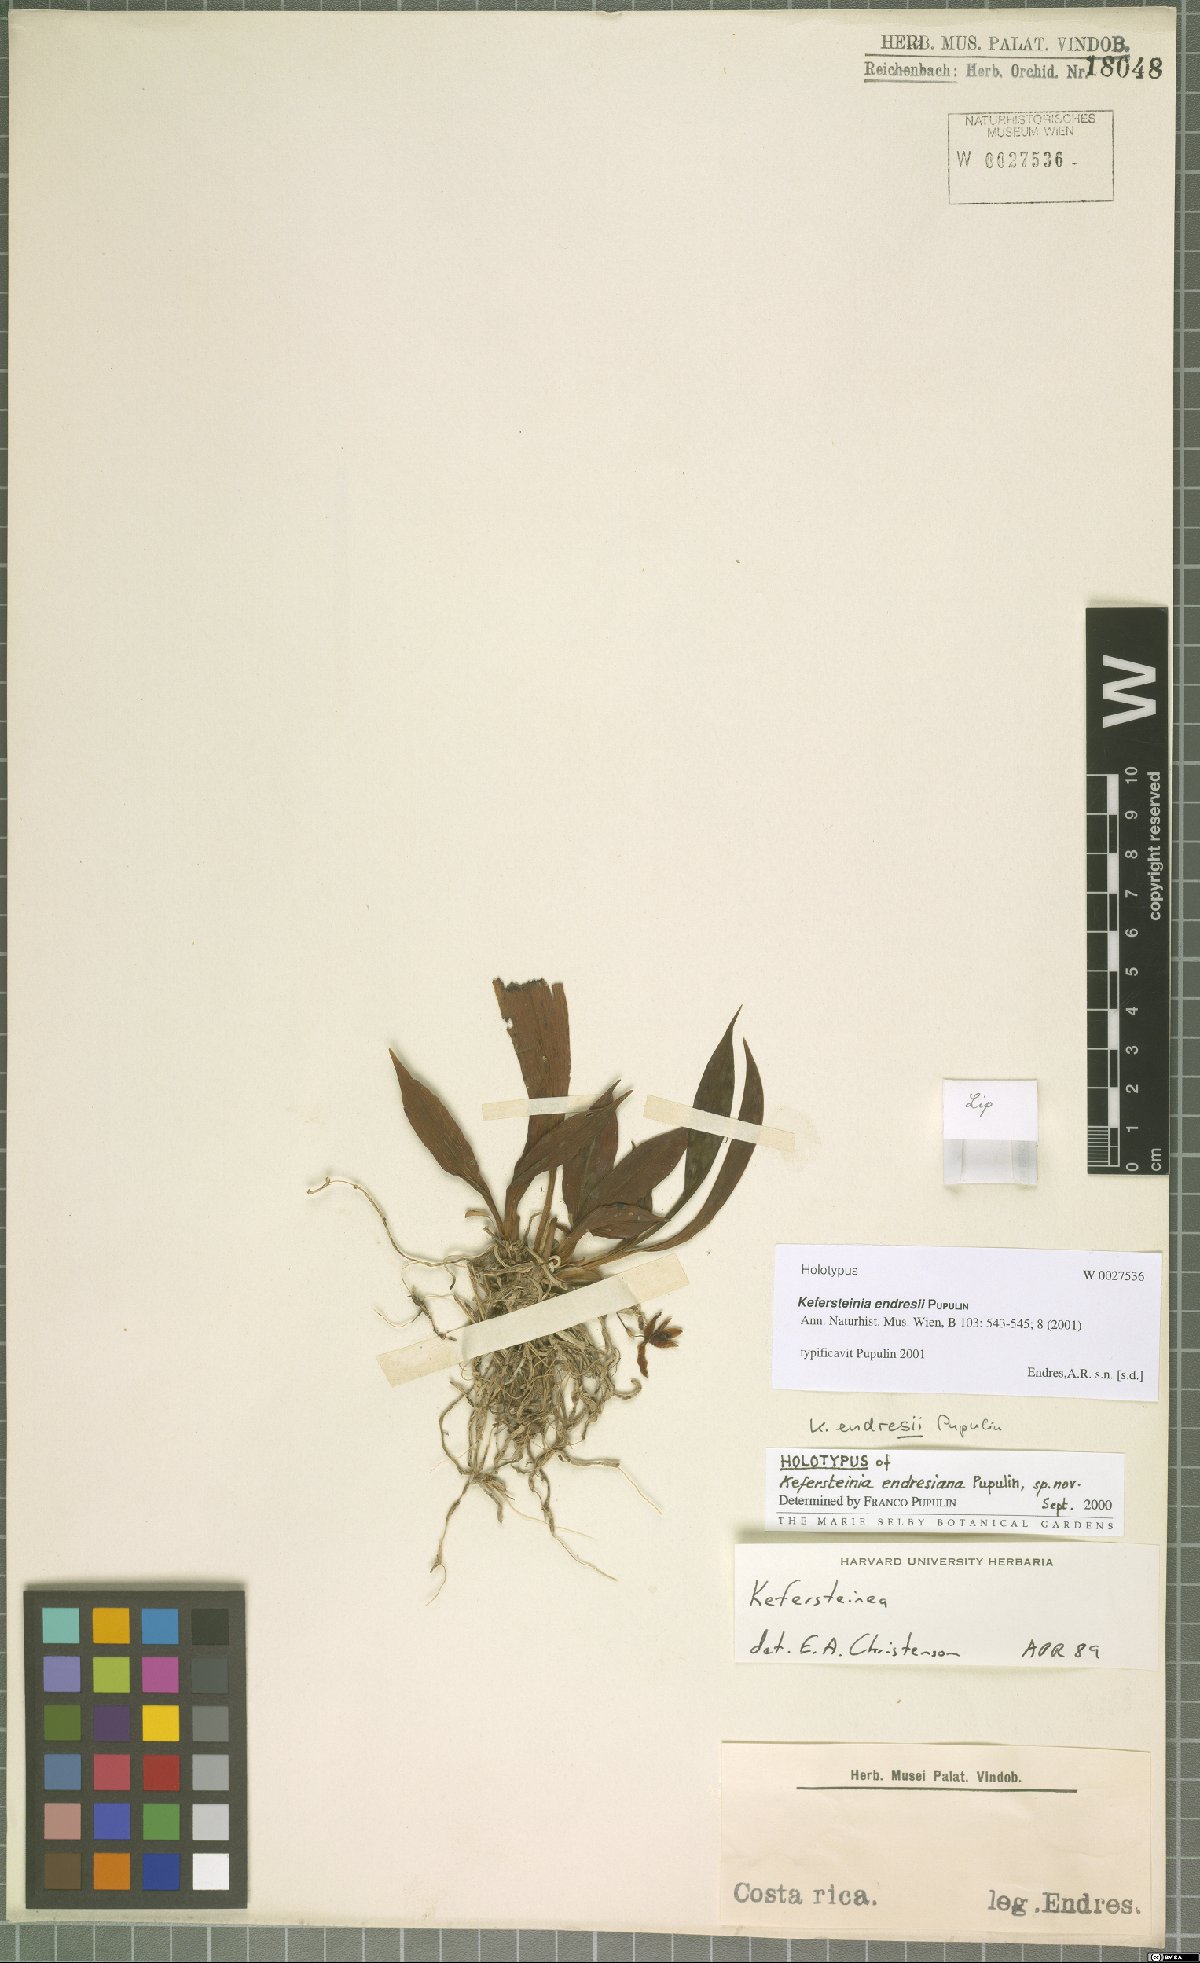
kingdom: Plantae
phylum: Tracheophyta
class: Liliopsida
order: Asparagales
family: Orchidaceae
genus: Kefersteinia
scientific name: Kefersteinia endresii
